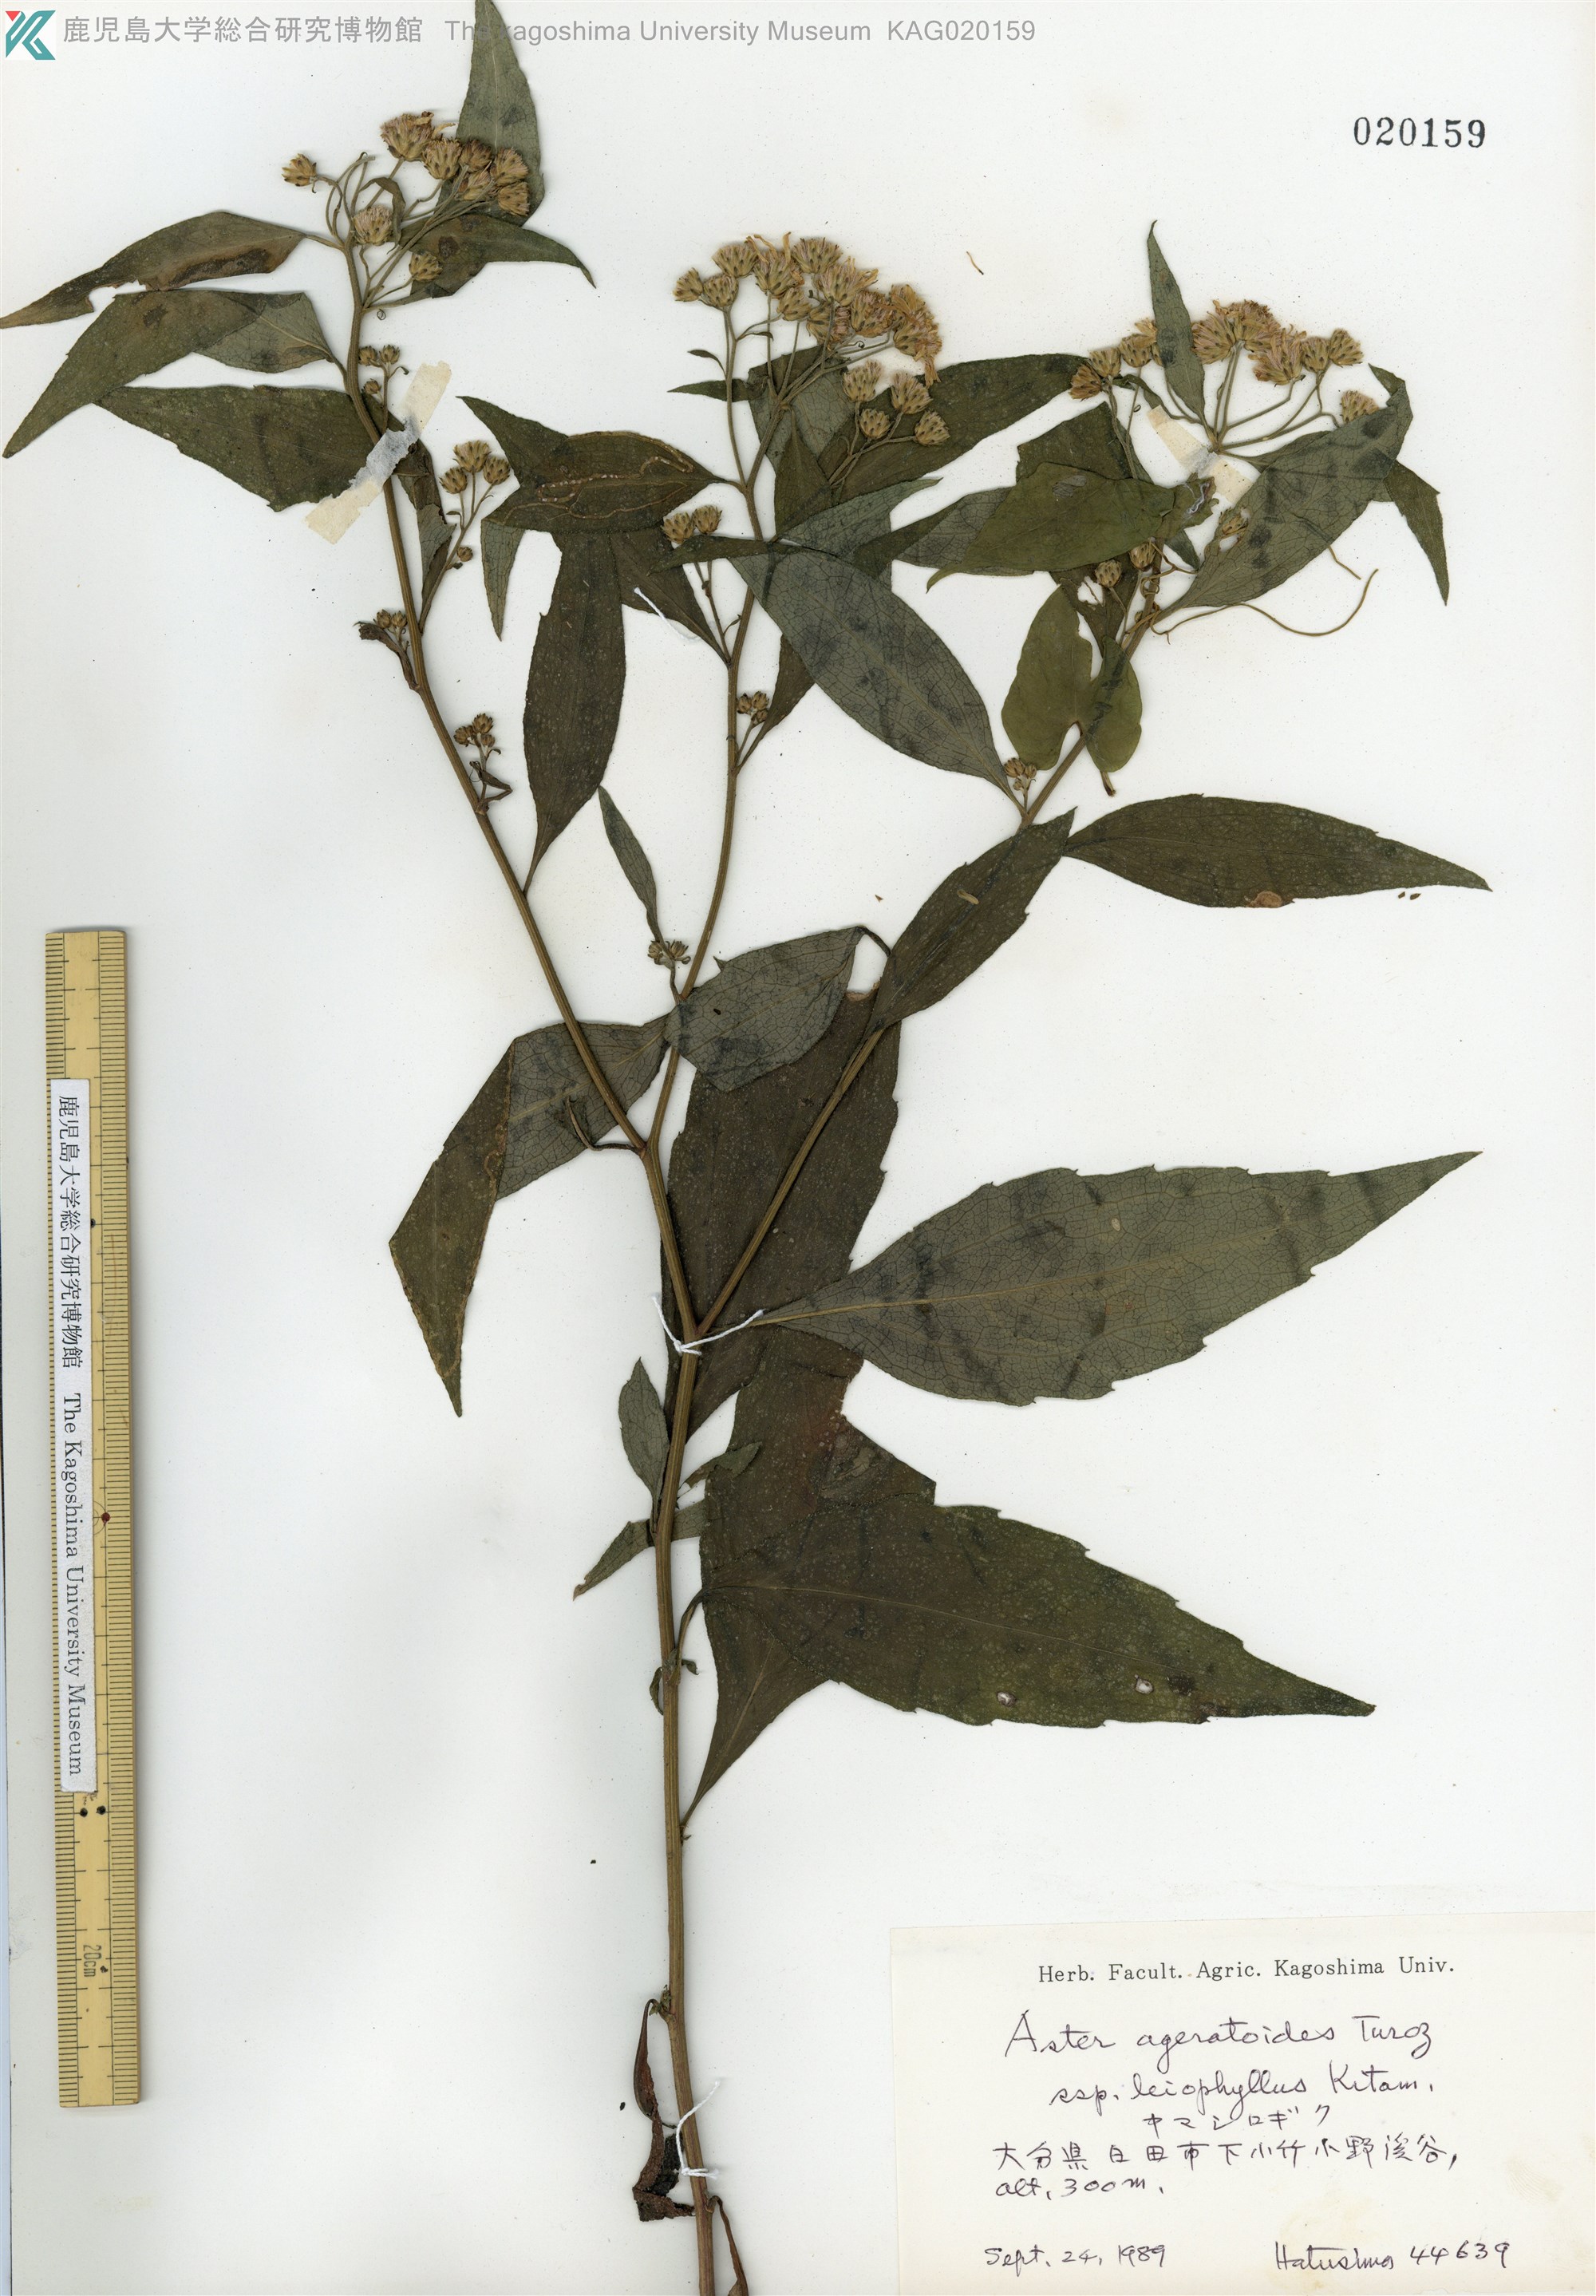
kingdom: Plantae
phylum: Tracheophyta
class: Magnoliopsida
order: Asterales
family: Asteraceae
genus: Aster
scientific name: Aster ageratoides
